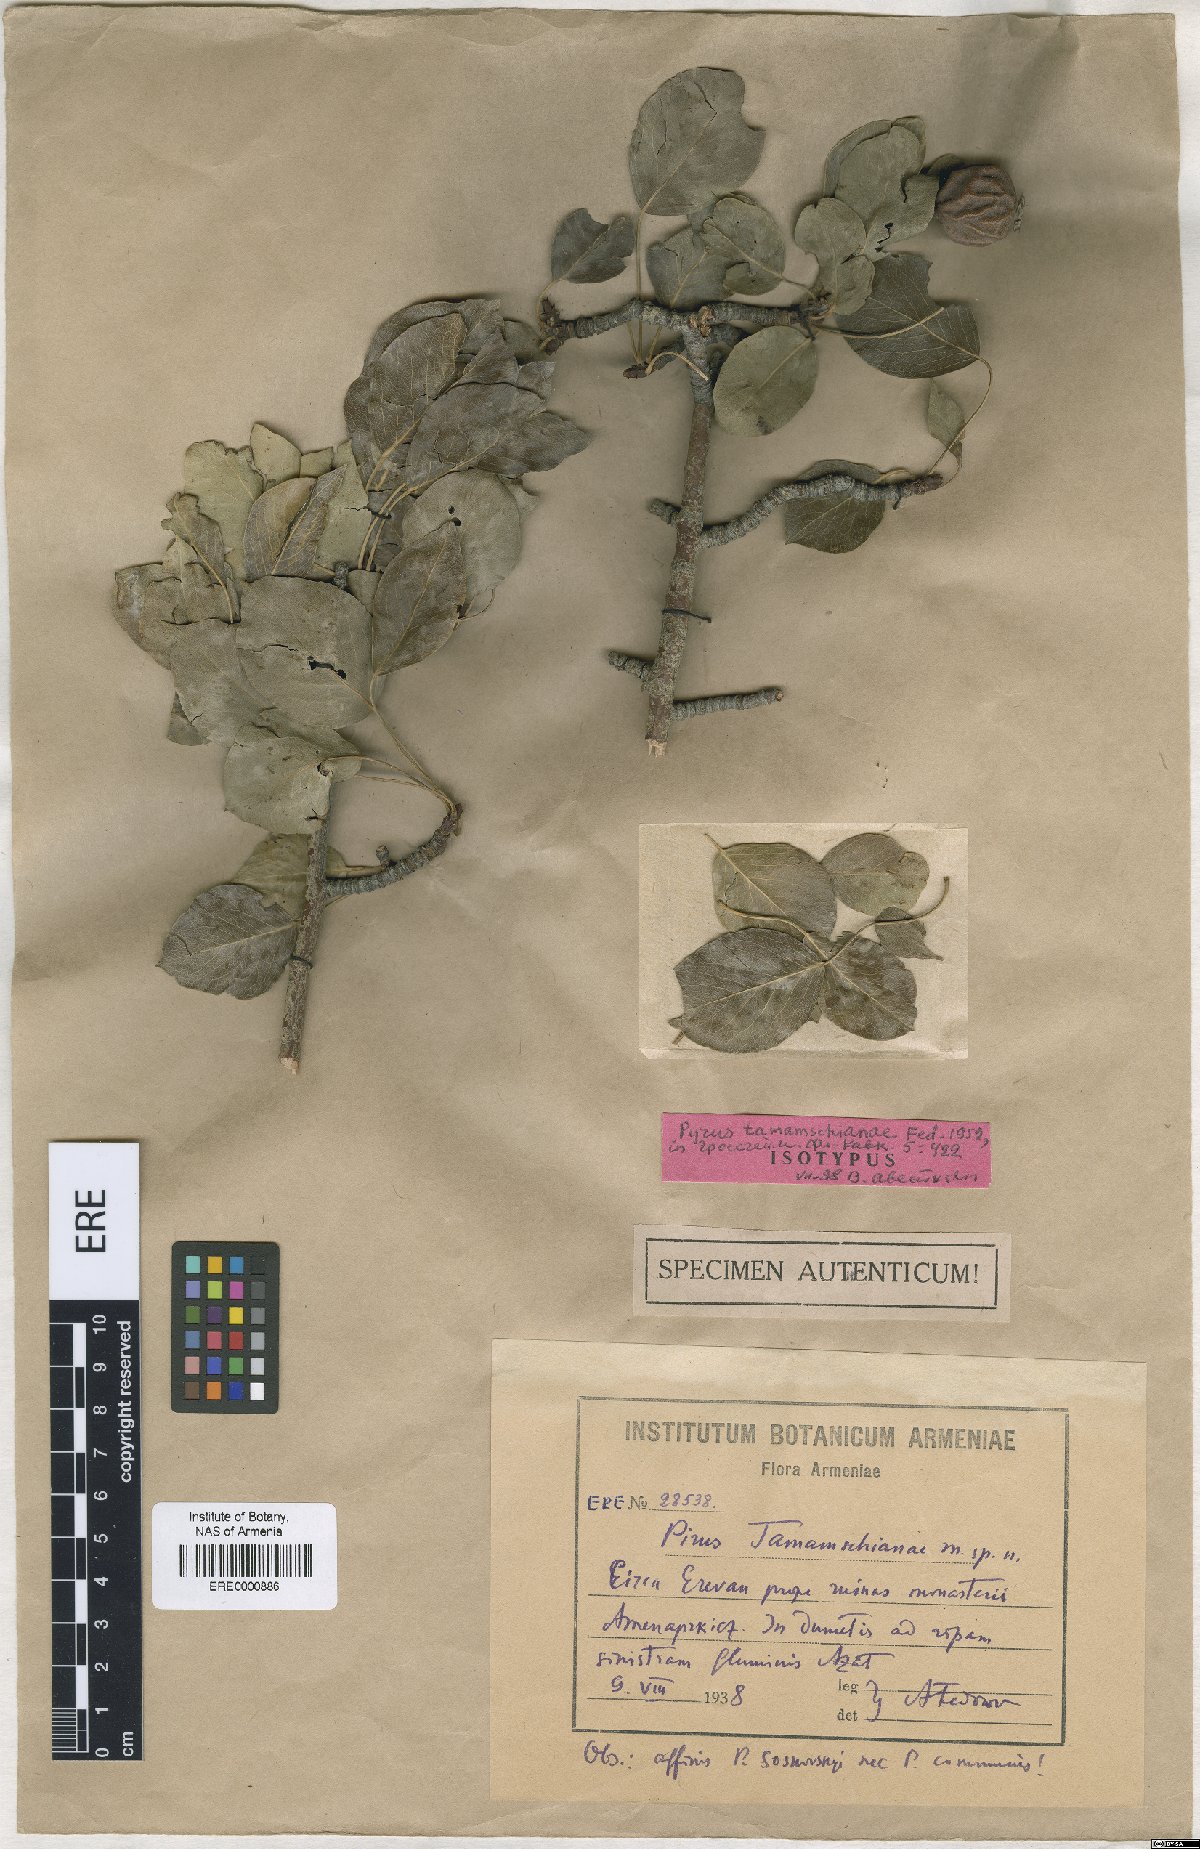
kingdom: Plantae
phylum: Tracheophyta
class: Magnoliopsida
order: Rosales
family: Rosaceae
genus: Pyrus
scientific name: Pyrus tamamschianae
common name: Tamamshyan's pear
